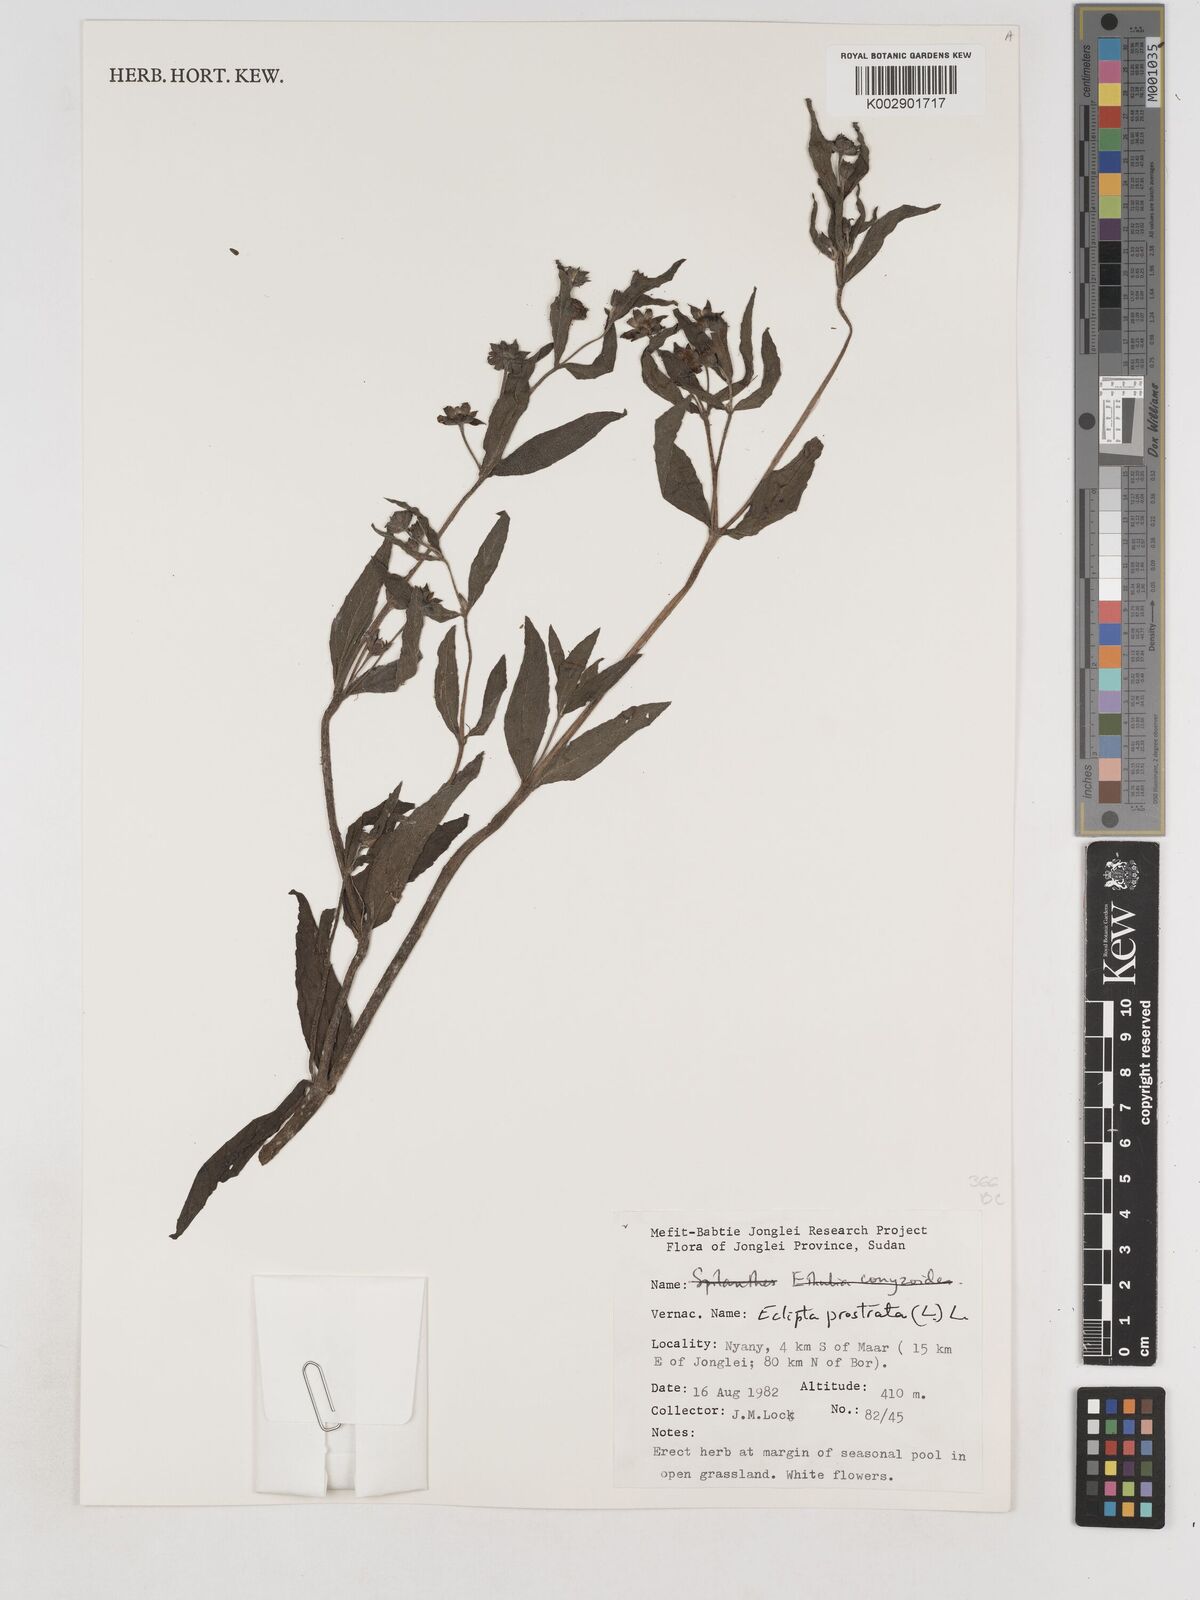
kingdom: Plantae
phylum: Tracheophyta
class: Magnoliopsida
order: Asterales
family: Asteraceae
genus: Eclipta
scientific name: Eclipta prostrata
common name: False daisy
